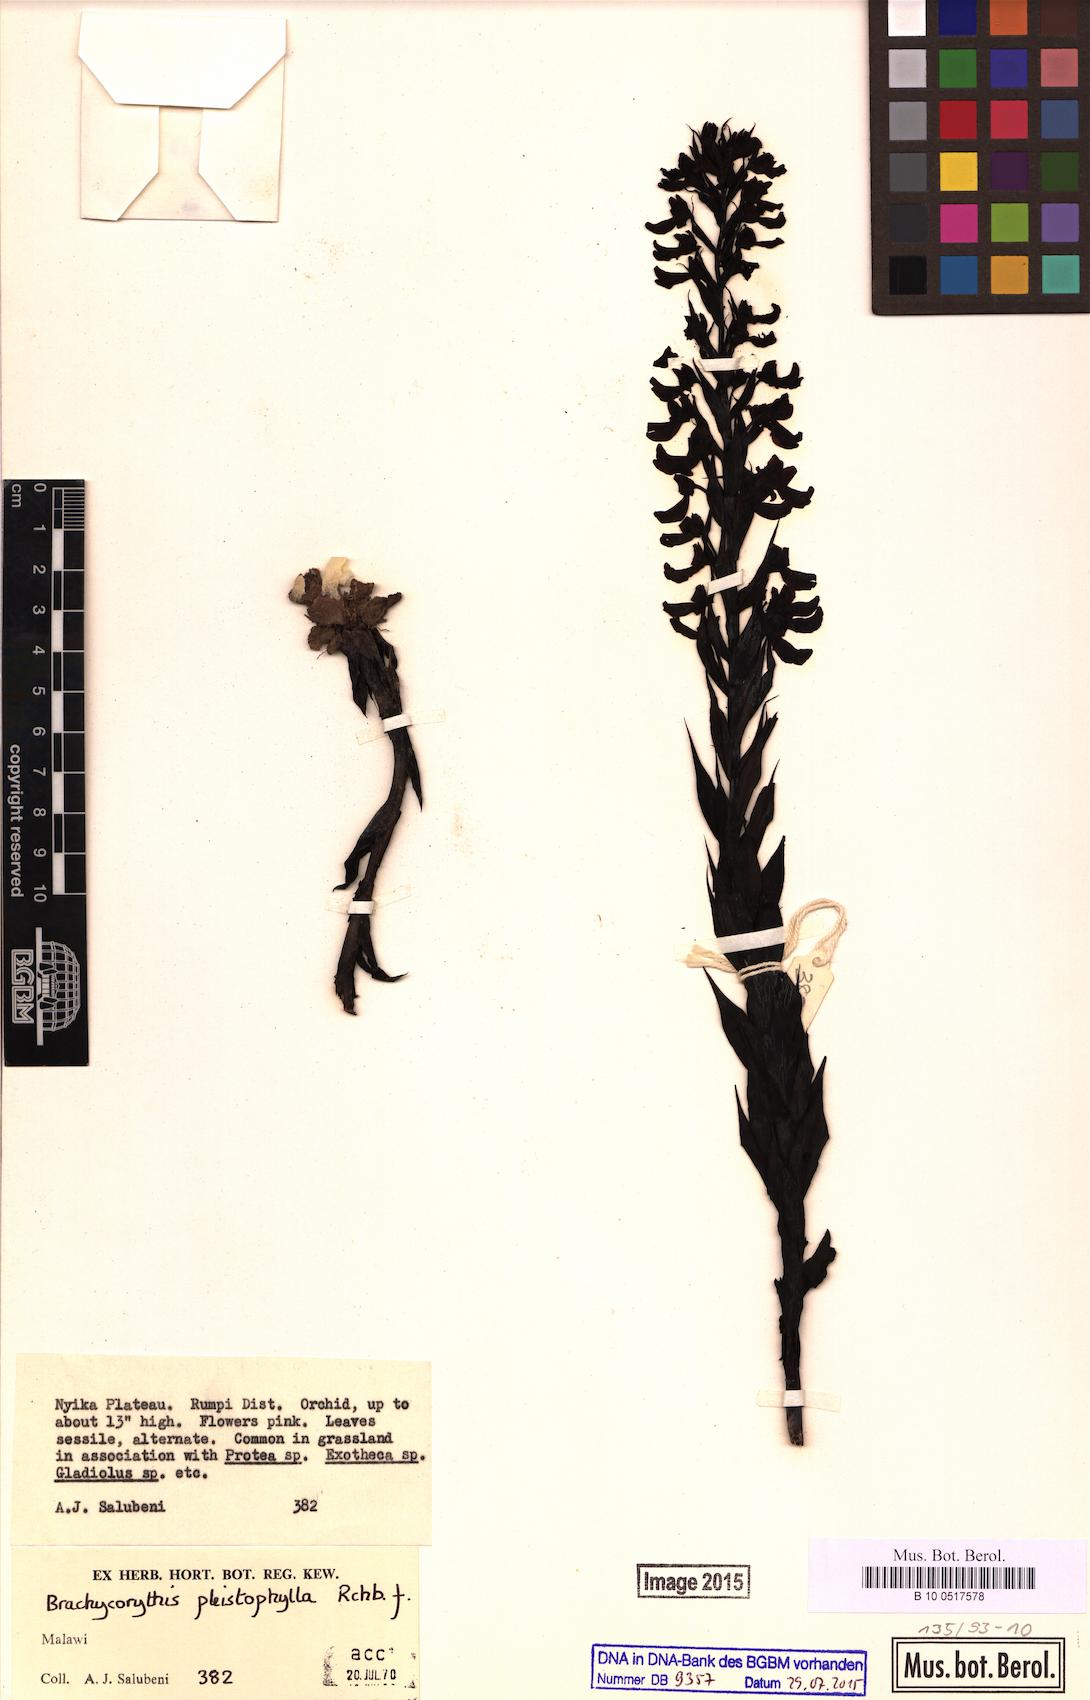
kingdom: Plantae
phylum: Tracheophyta
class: Liliopsida
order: Asparagales
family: Orchidaceae
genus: Brachycorythis
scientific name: Brachycorythis pleistophylla
